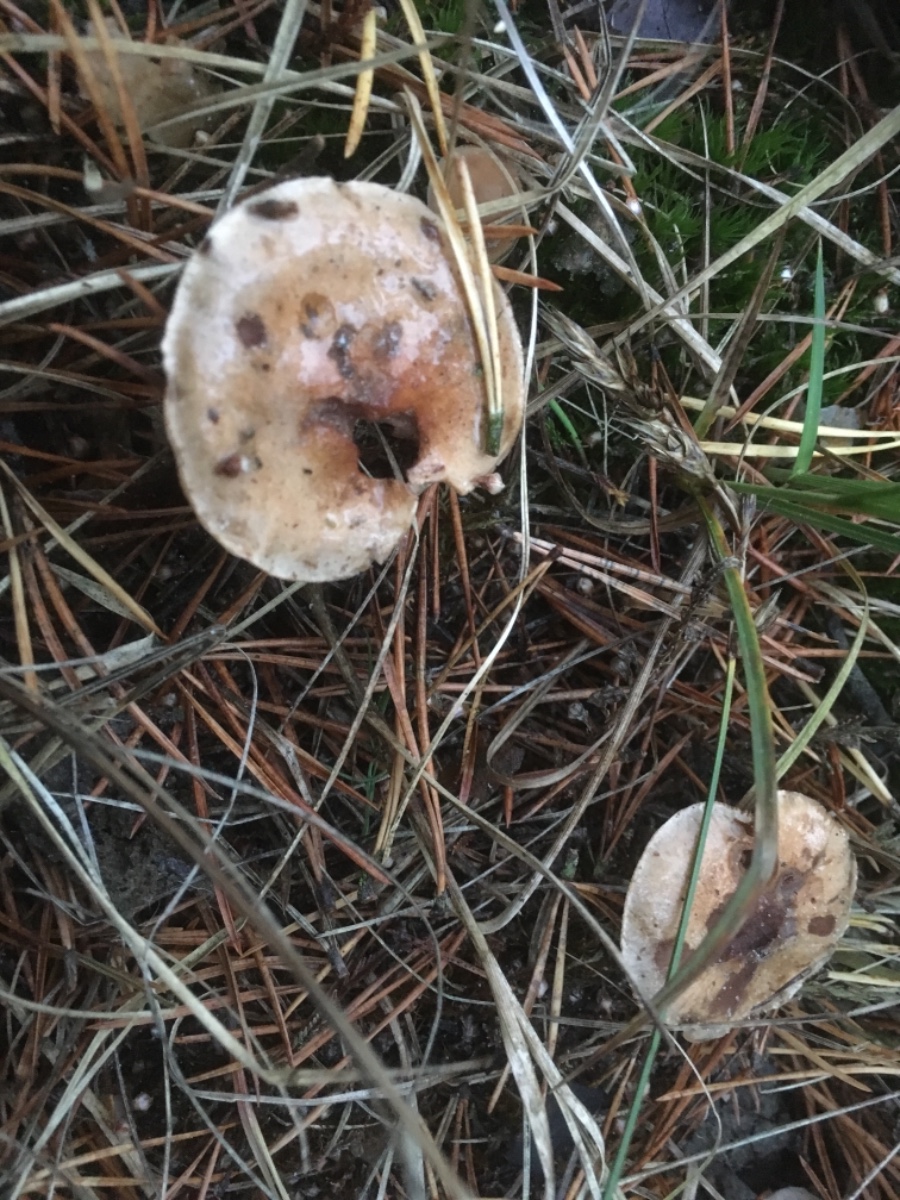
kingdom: Fungi
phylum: Basidiomycota
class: Agaricomycetes
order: Agaricales
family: Hymenogastraceae
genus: Hebeloma
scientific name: Hebeloma
